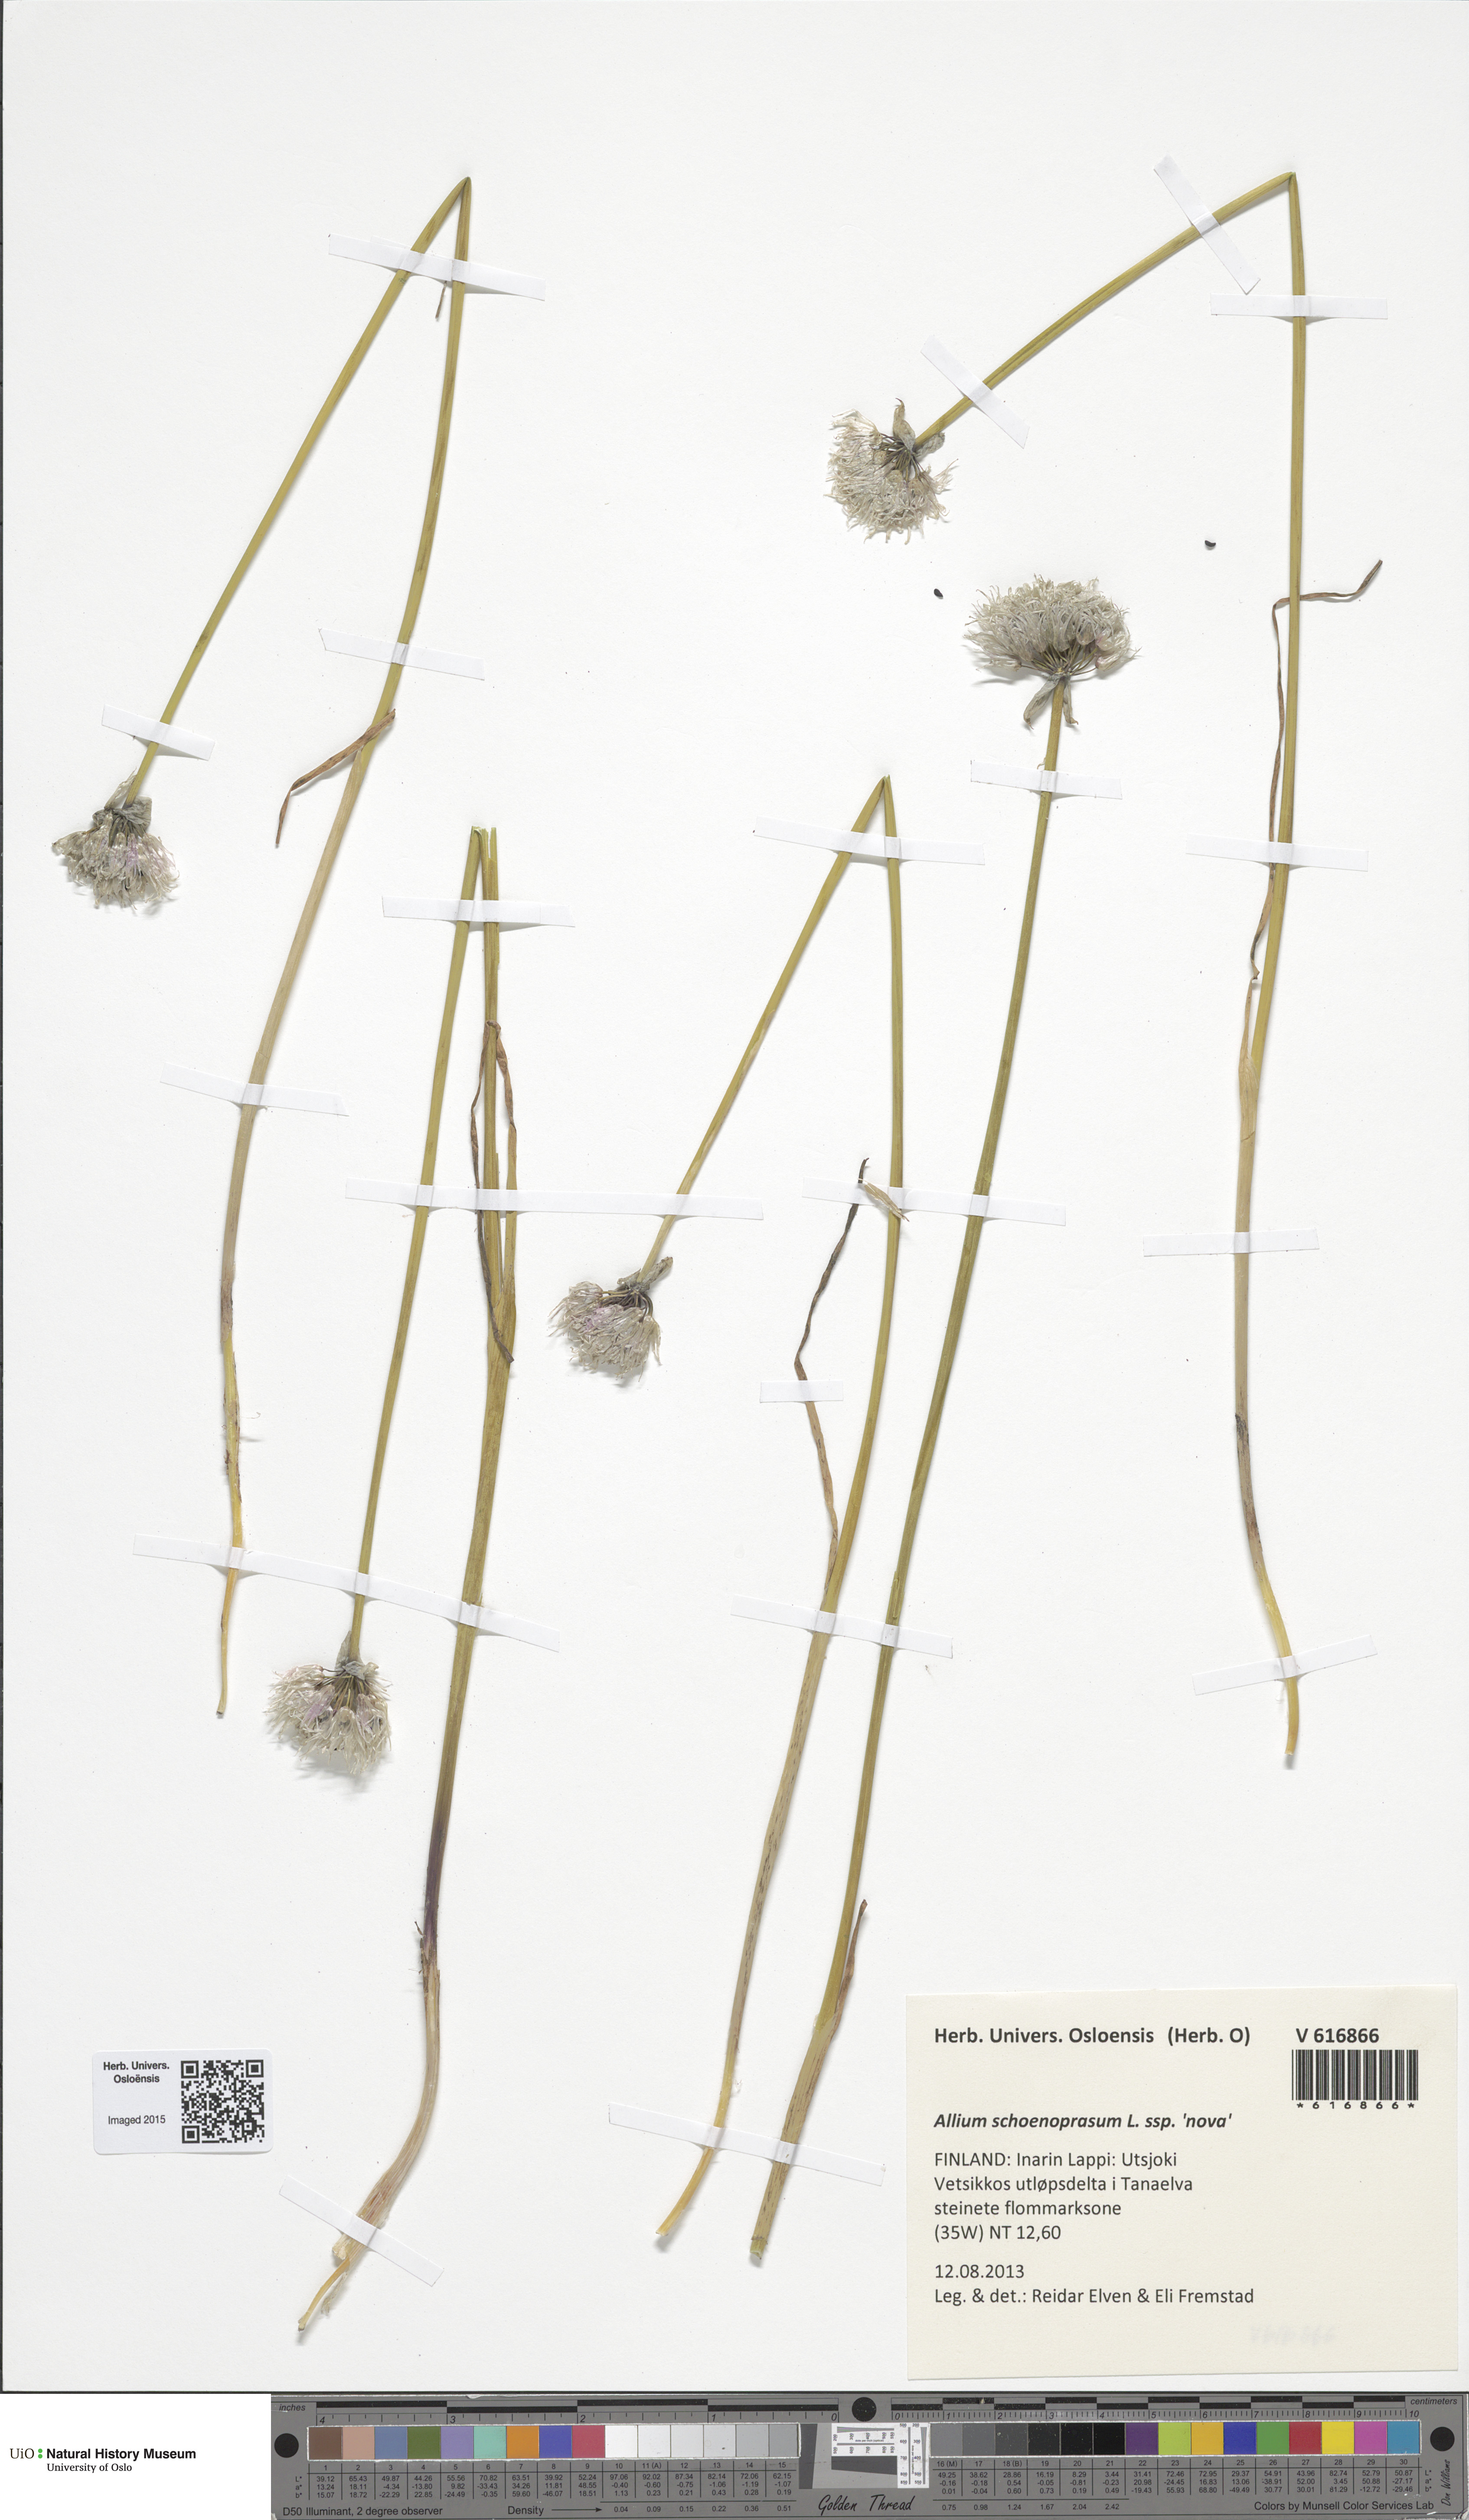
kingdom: Plantae
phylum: Tracheophyta
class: Liliopsida
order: Asparagales
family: Amaryllidaceae
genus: Allium
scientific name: Allium schoenoprasum
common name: Chives
